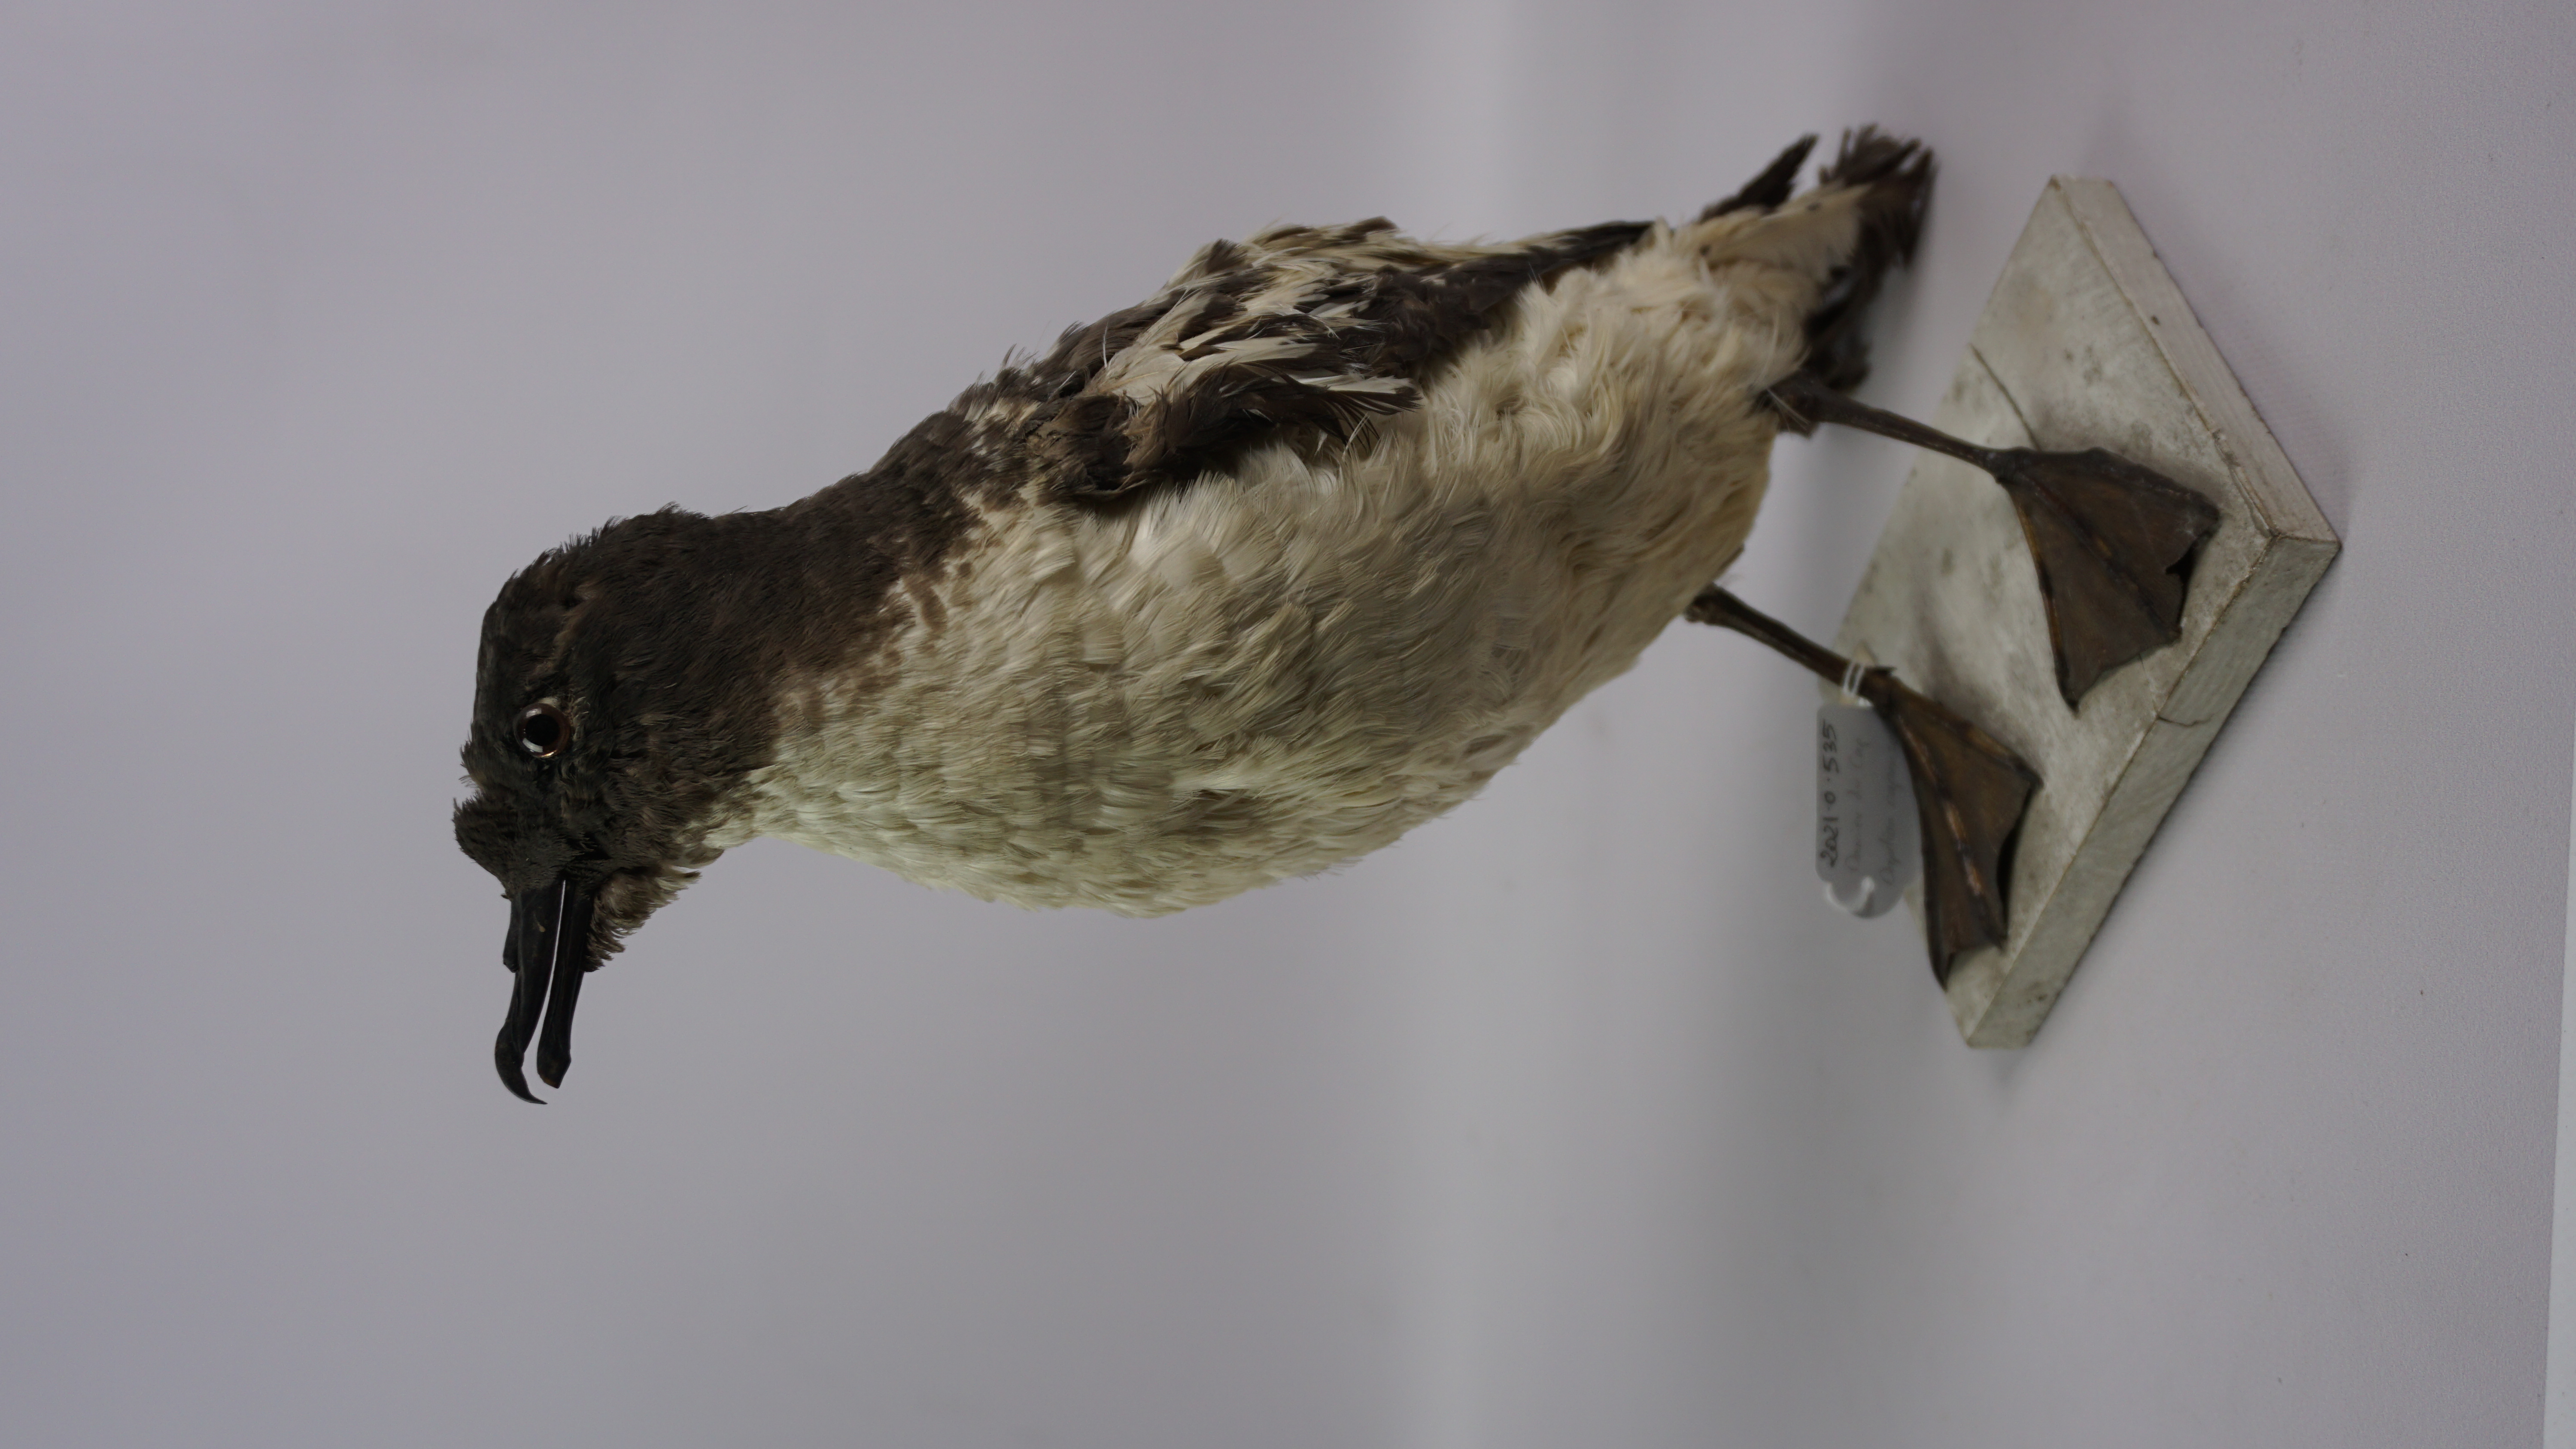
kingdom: Animalia
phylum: Chordata
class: Aves
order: Procellariiformes
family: Procellariidae
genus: Daption
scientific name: Daption capense
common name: Cape petrel
